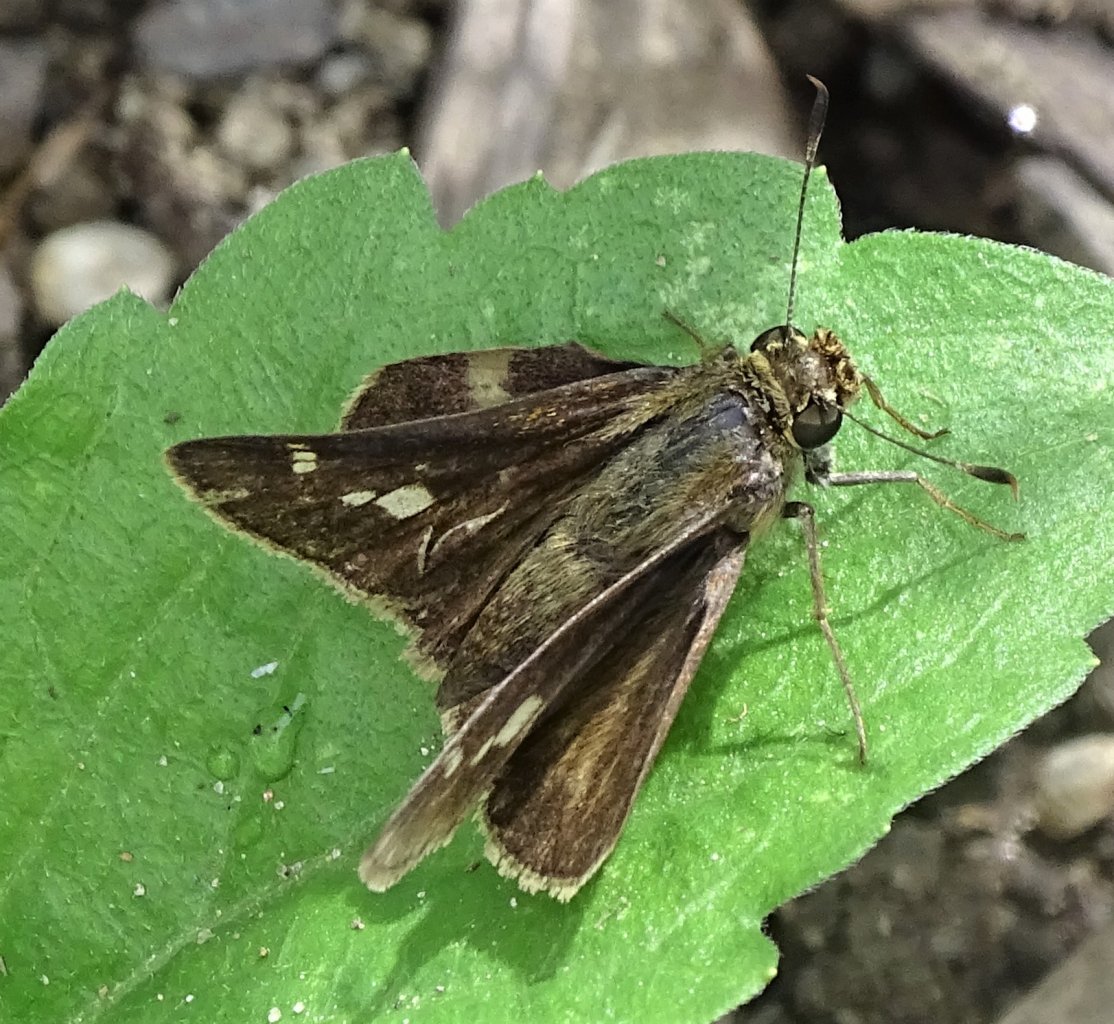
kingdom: Animalia
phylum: Arthropoda
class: Insecta
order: Lepidoptera
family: Hesperiidae
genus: Vernia
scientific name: Vernia verna
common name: Little Glassywing
